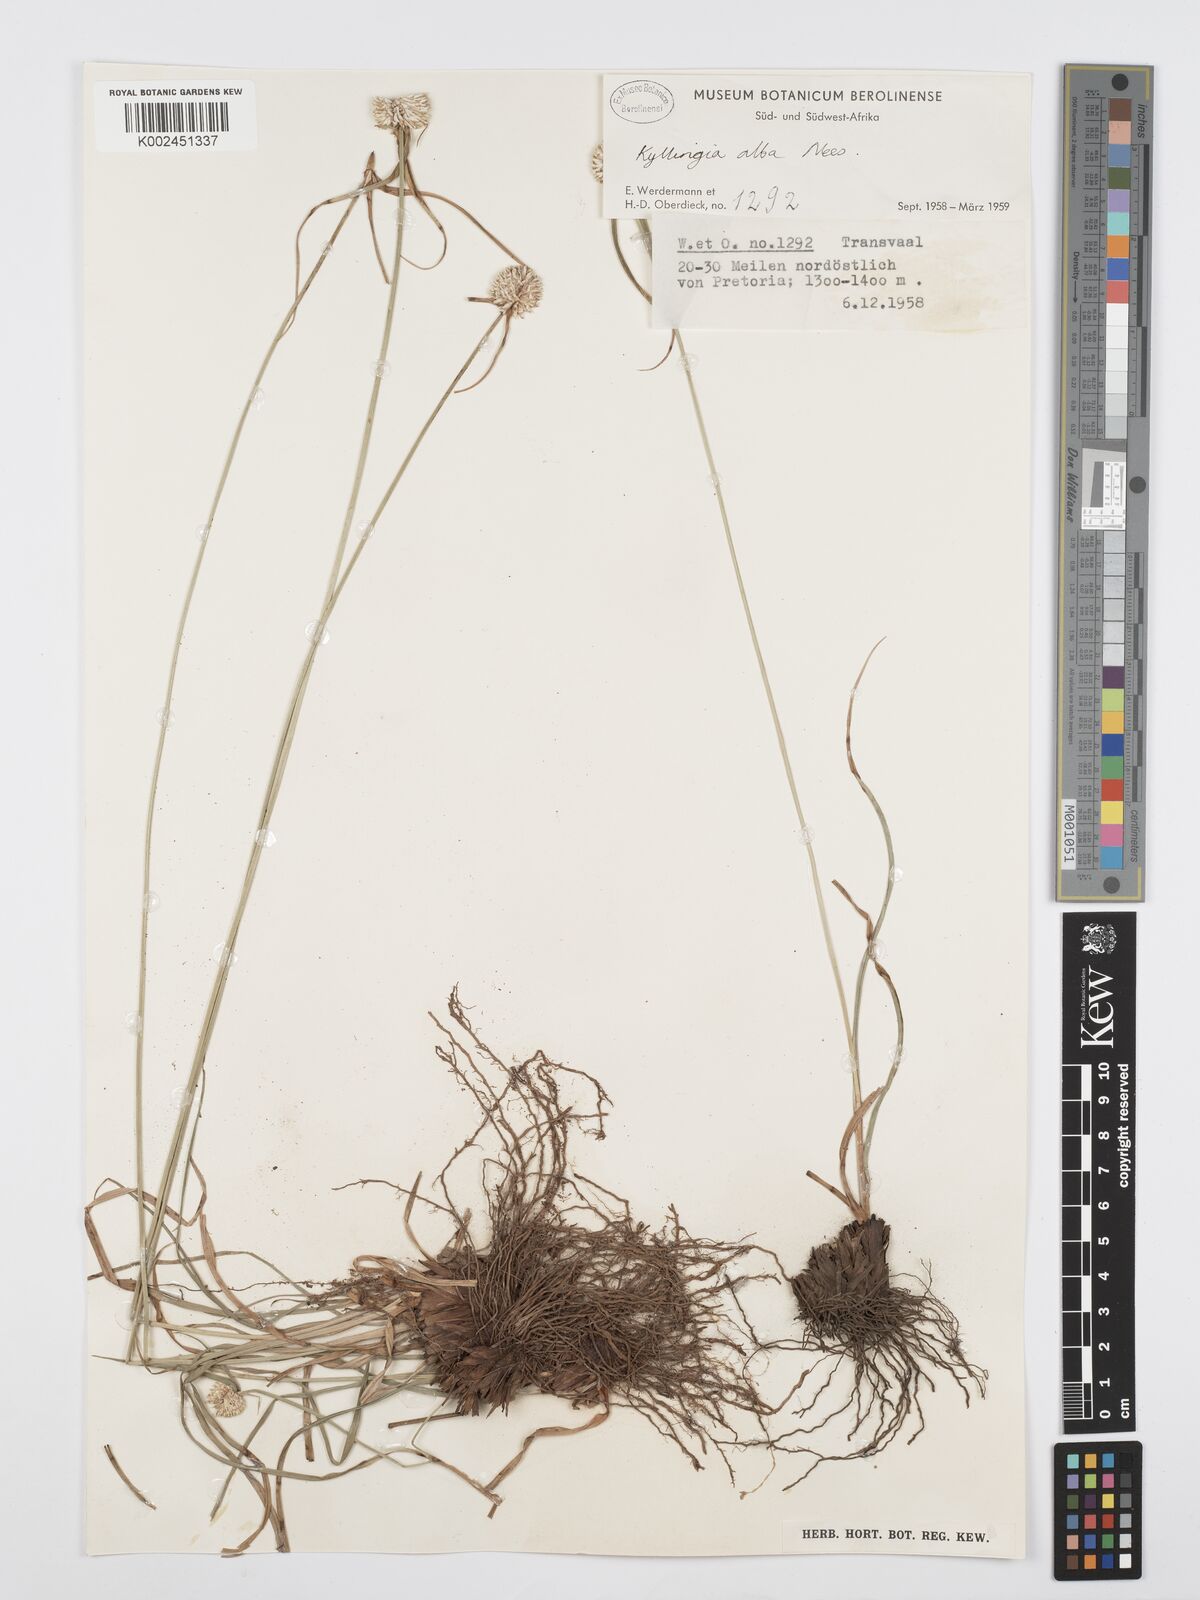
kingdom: Plantae
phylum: Tracheophyta
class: Liliopsida
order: Poales
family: Cyperaceae
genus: Cyperus
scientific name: Cyperus
